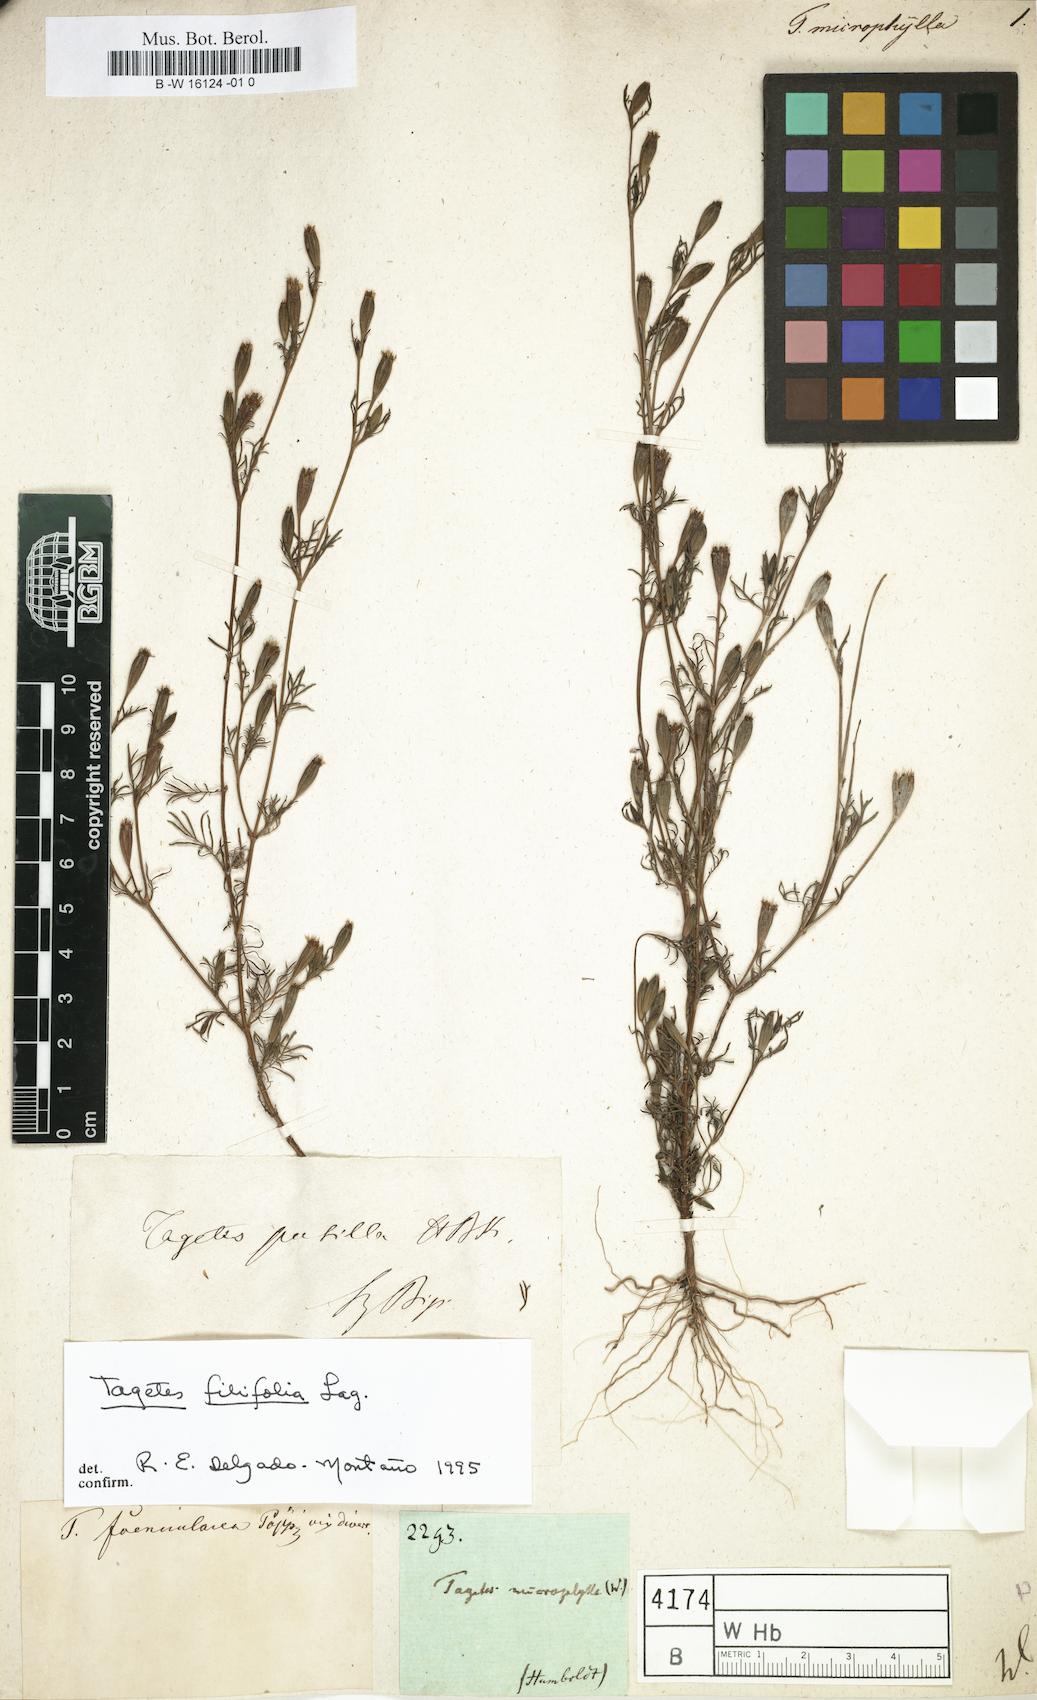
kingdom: Plantae
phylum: Tracheophyta
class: Magnoliopsida
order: Asterales
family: Asteraceae
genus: Tagetes
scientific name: Tagetes
